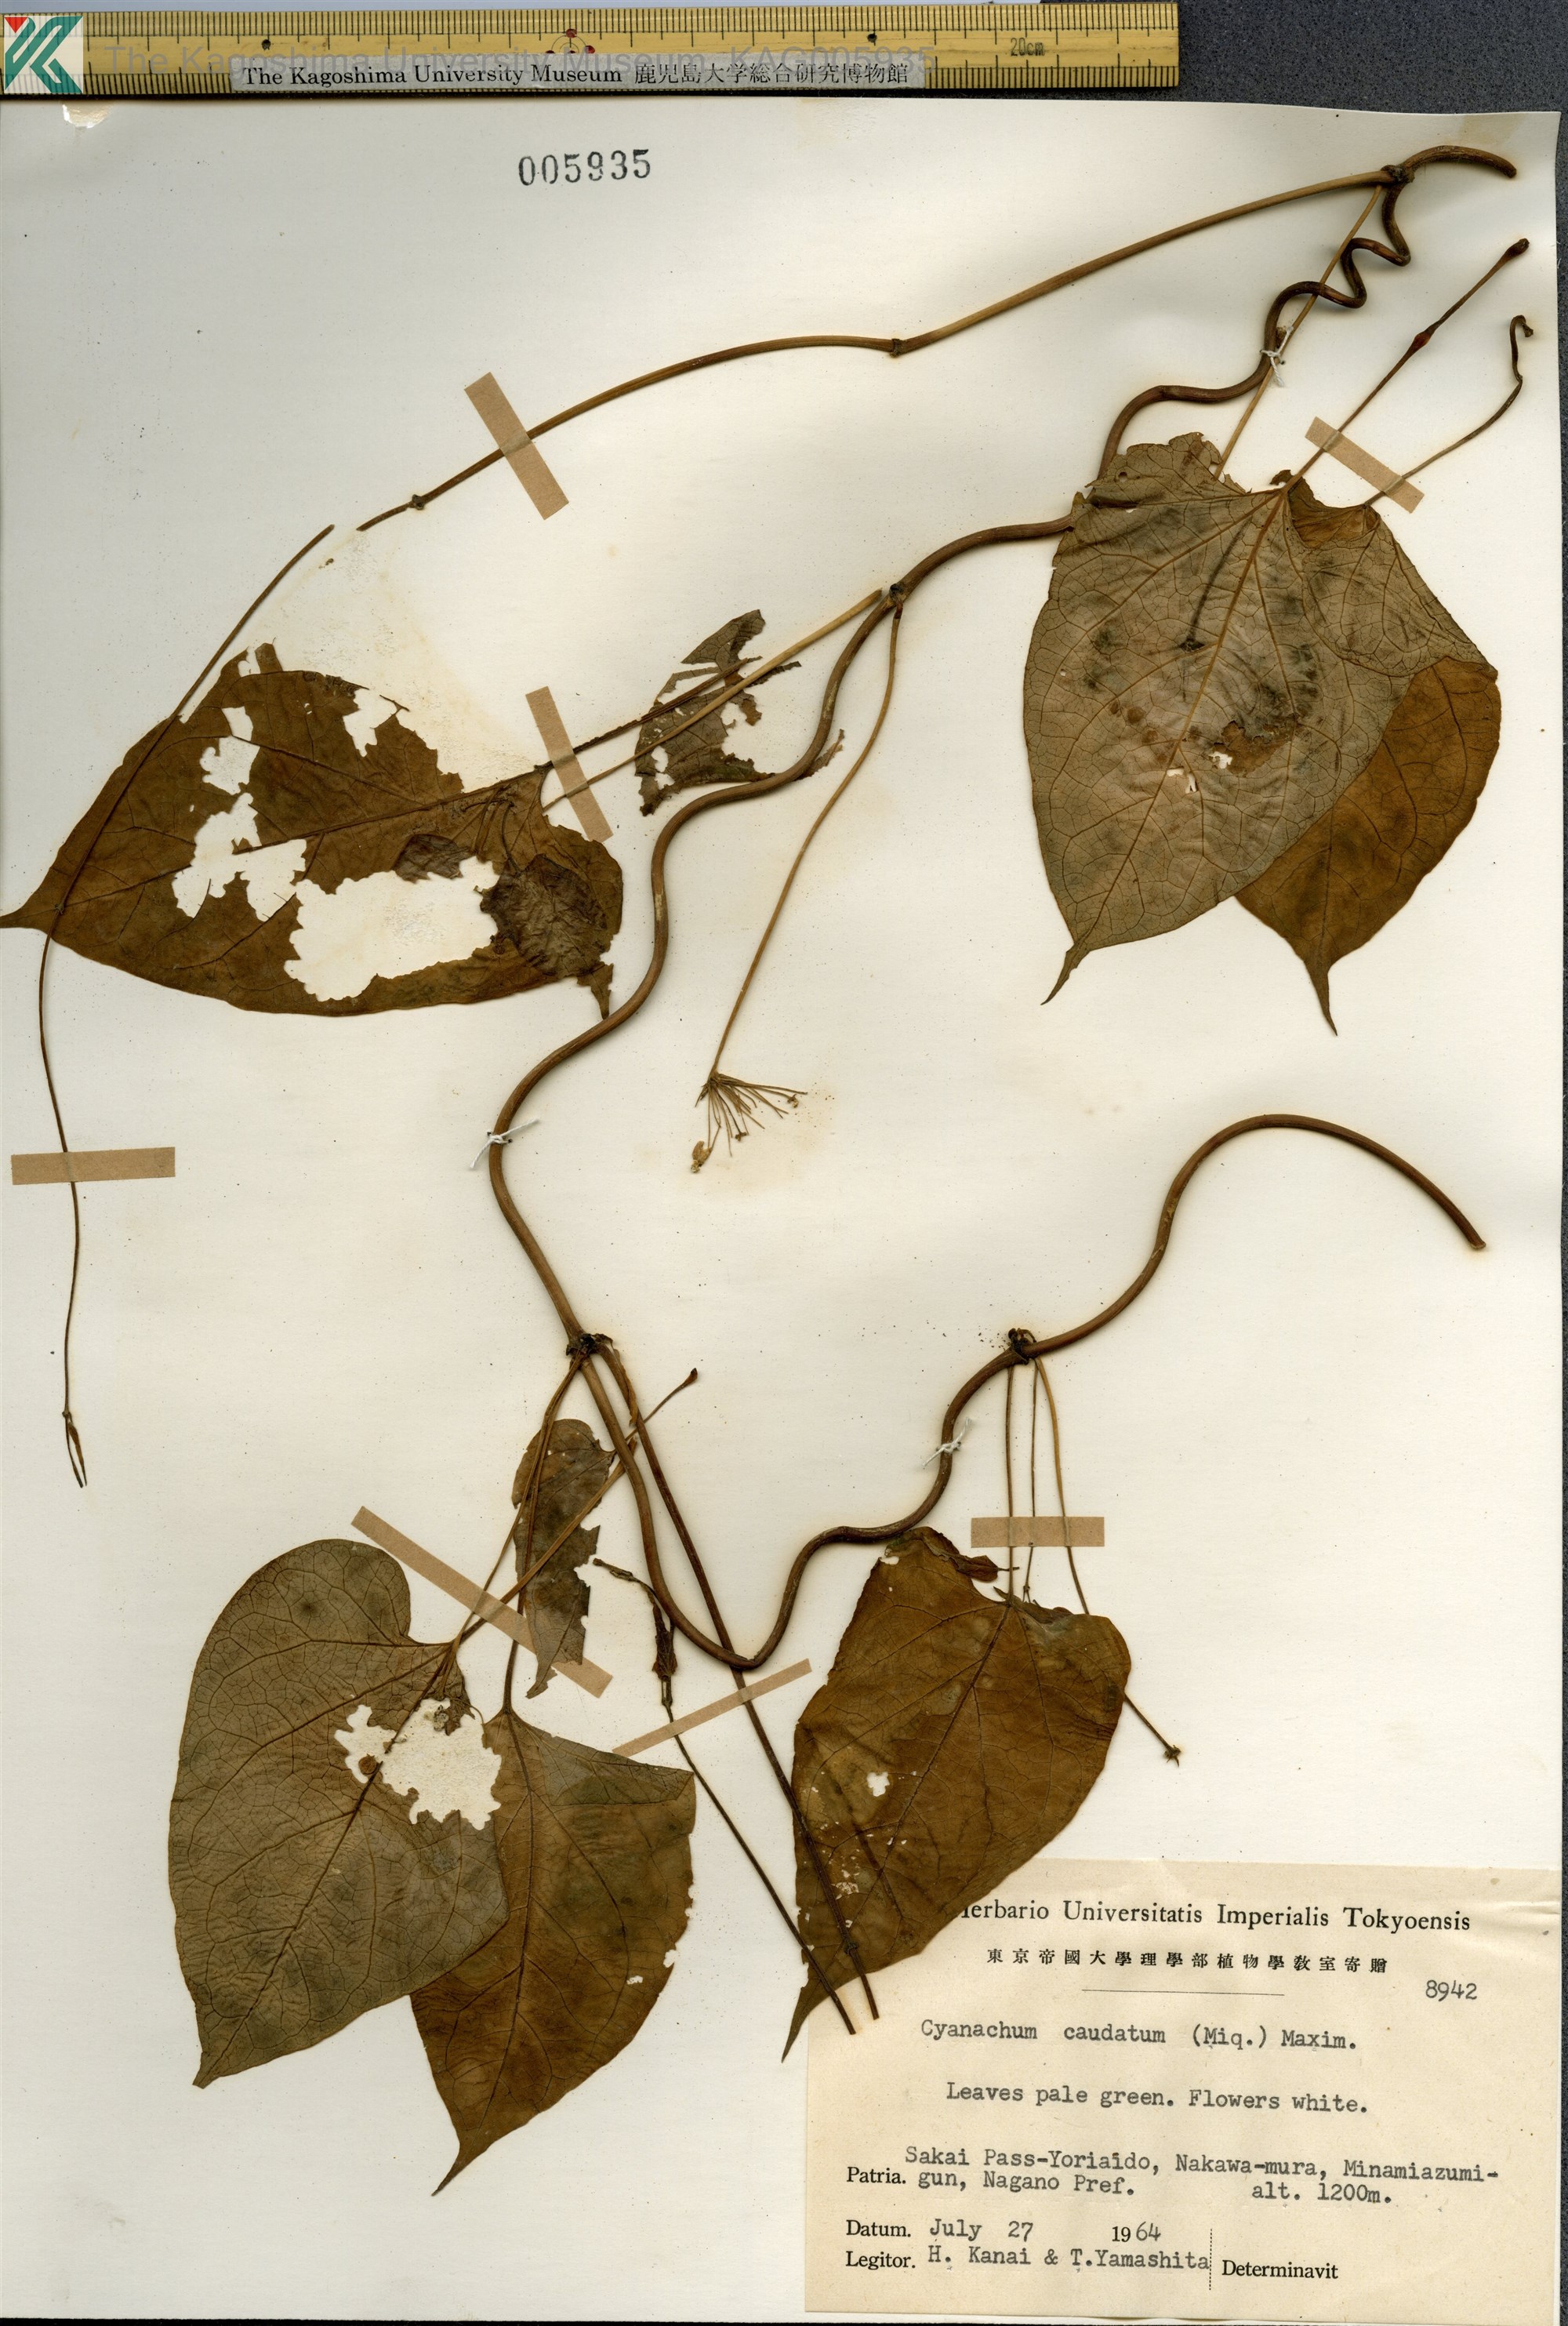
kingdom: Plantae
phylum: Tracheophyta
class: Magnoliopsida
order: Gentianales
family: Apocynaceae
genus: Orthosia
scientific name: Orthosia virgata
